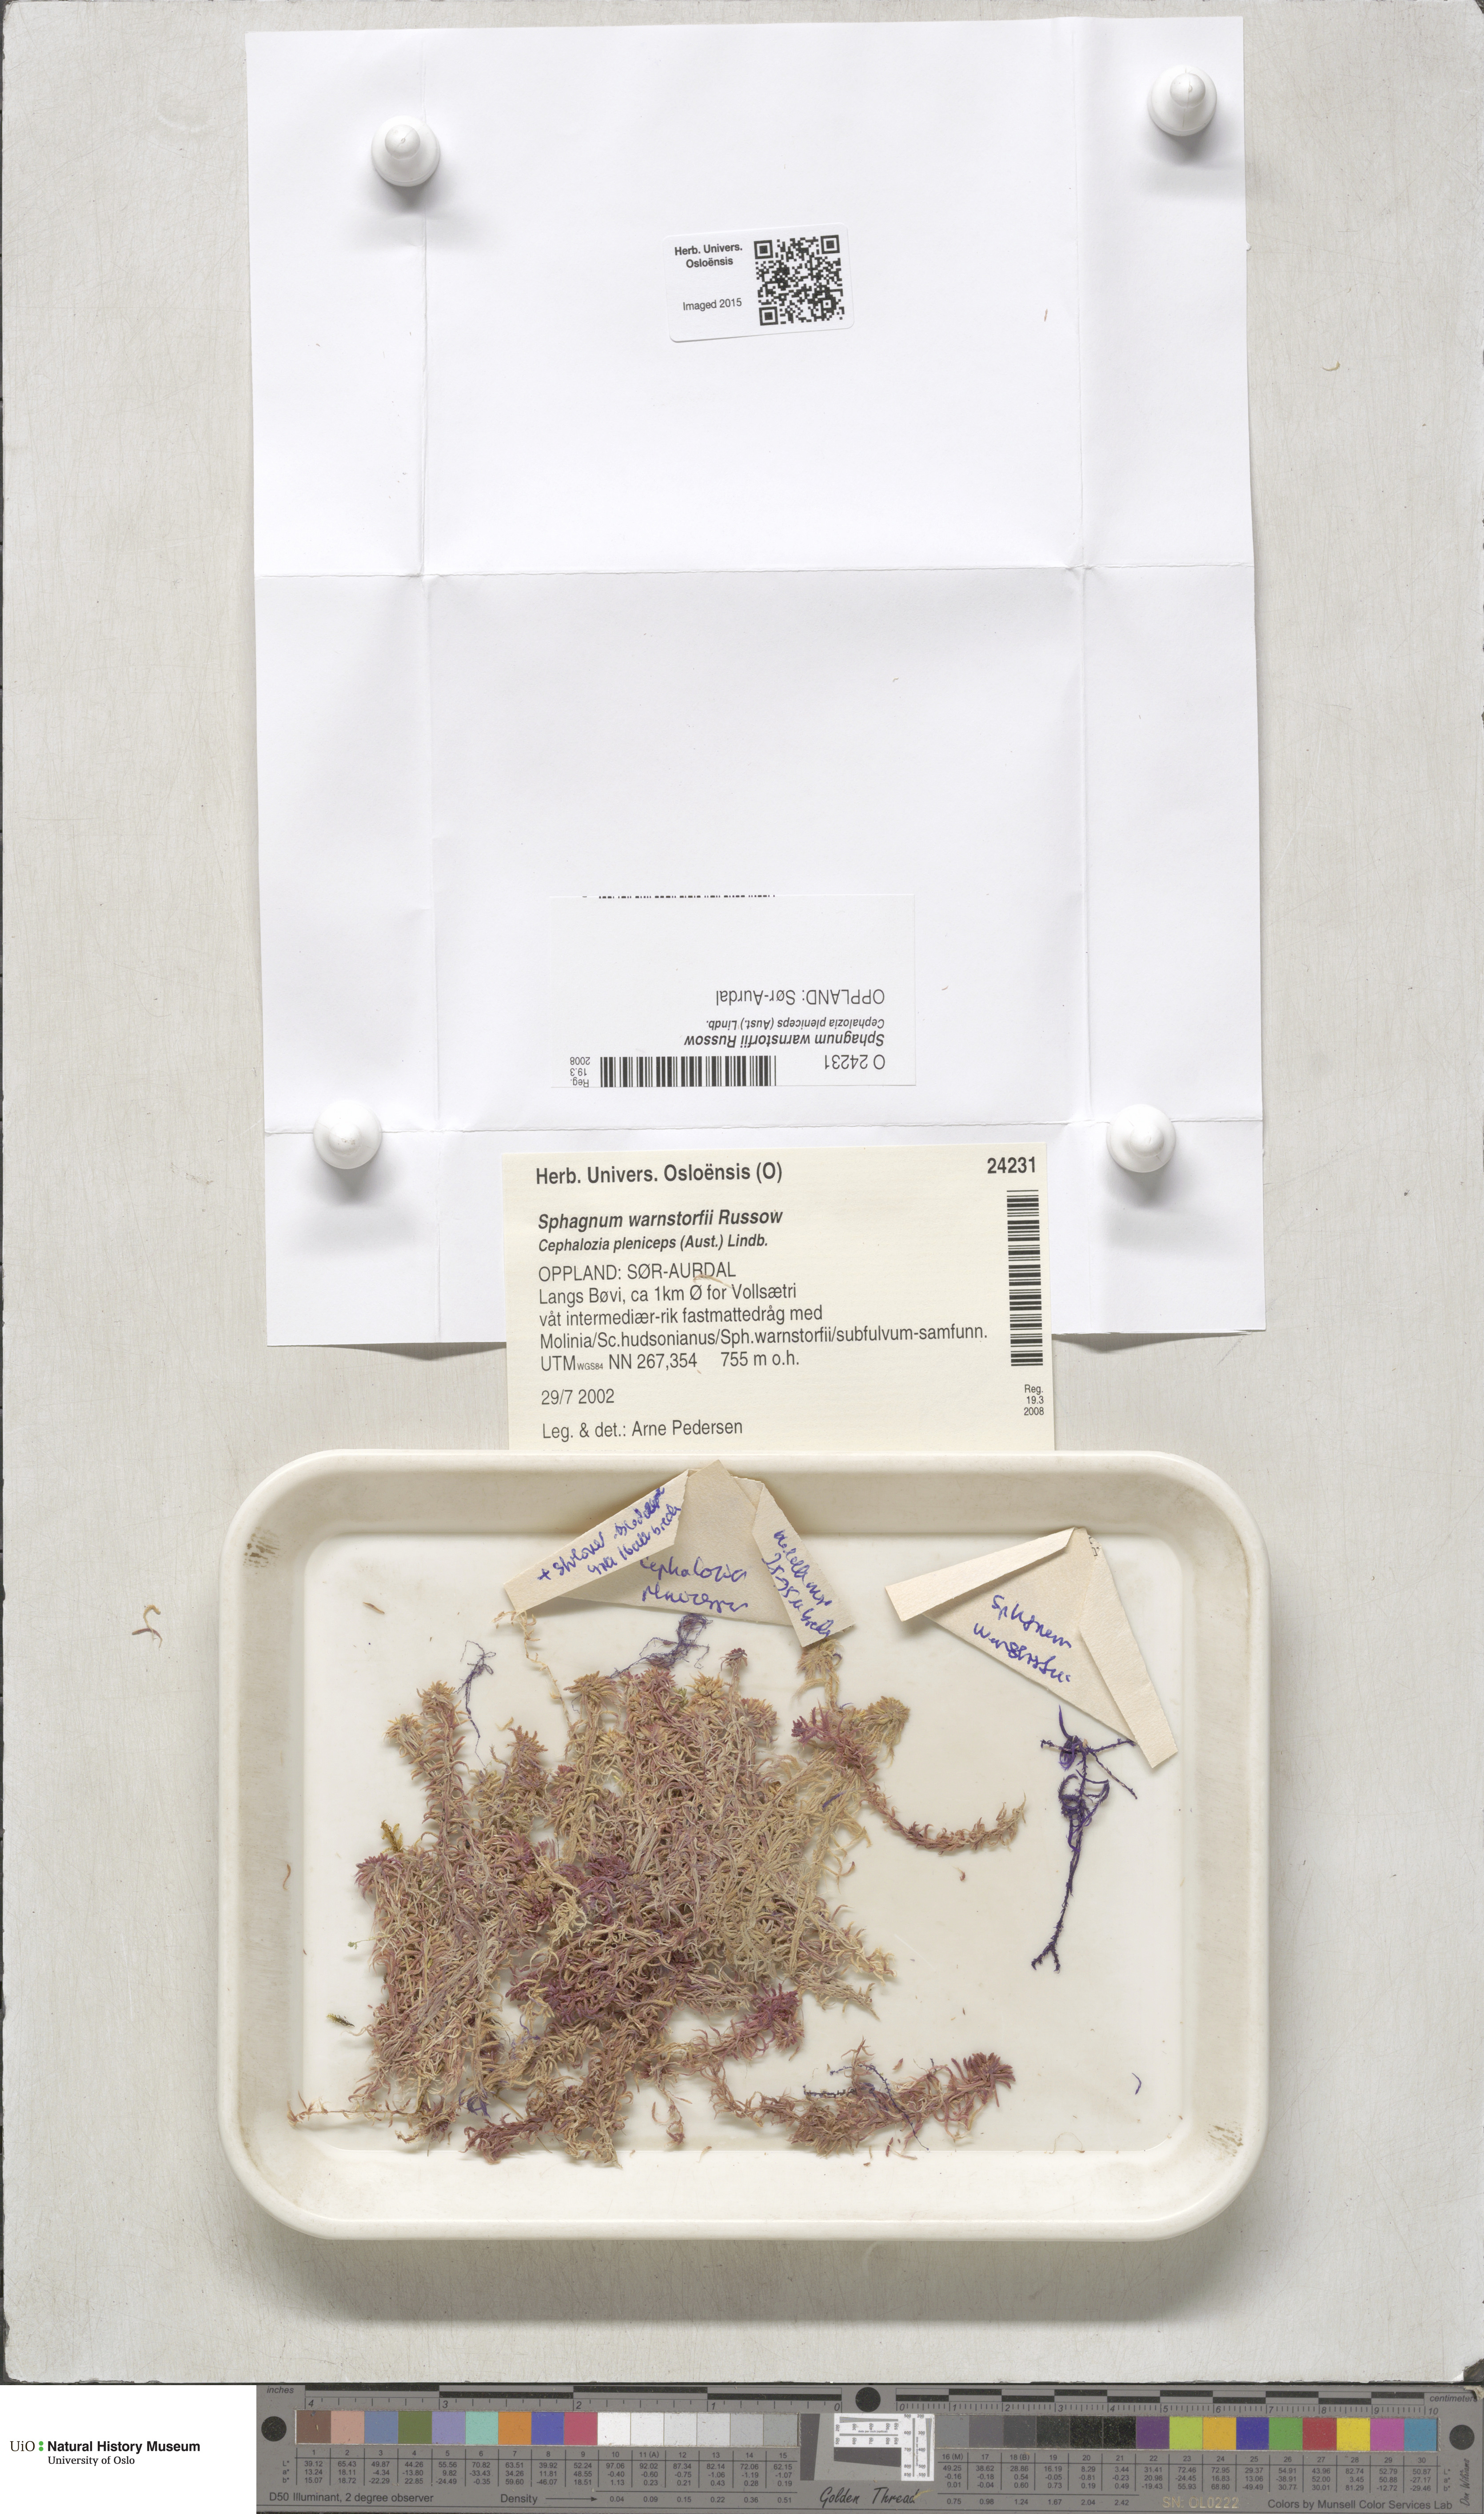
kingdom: Plantae
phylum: Bryophyta
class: Sphagnopsida
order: Sphagnales
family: Sphagnaceae
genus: Sphagnum
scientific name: Sphagnum warnstorfii
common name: Warnstorf's peat moss
